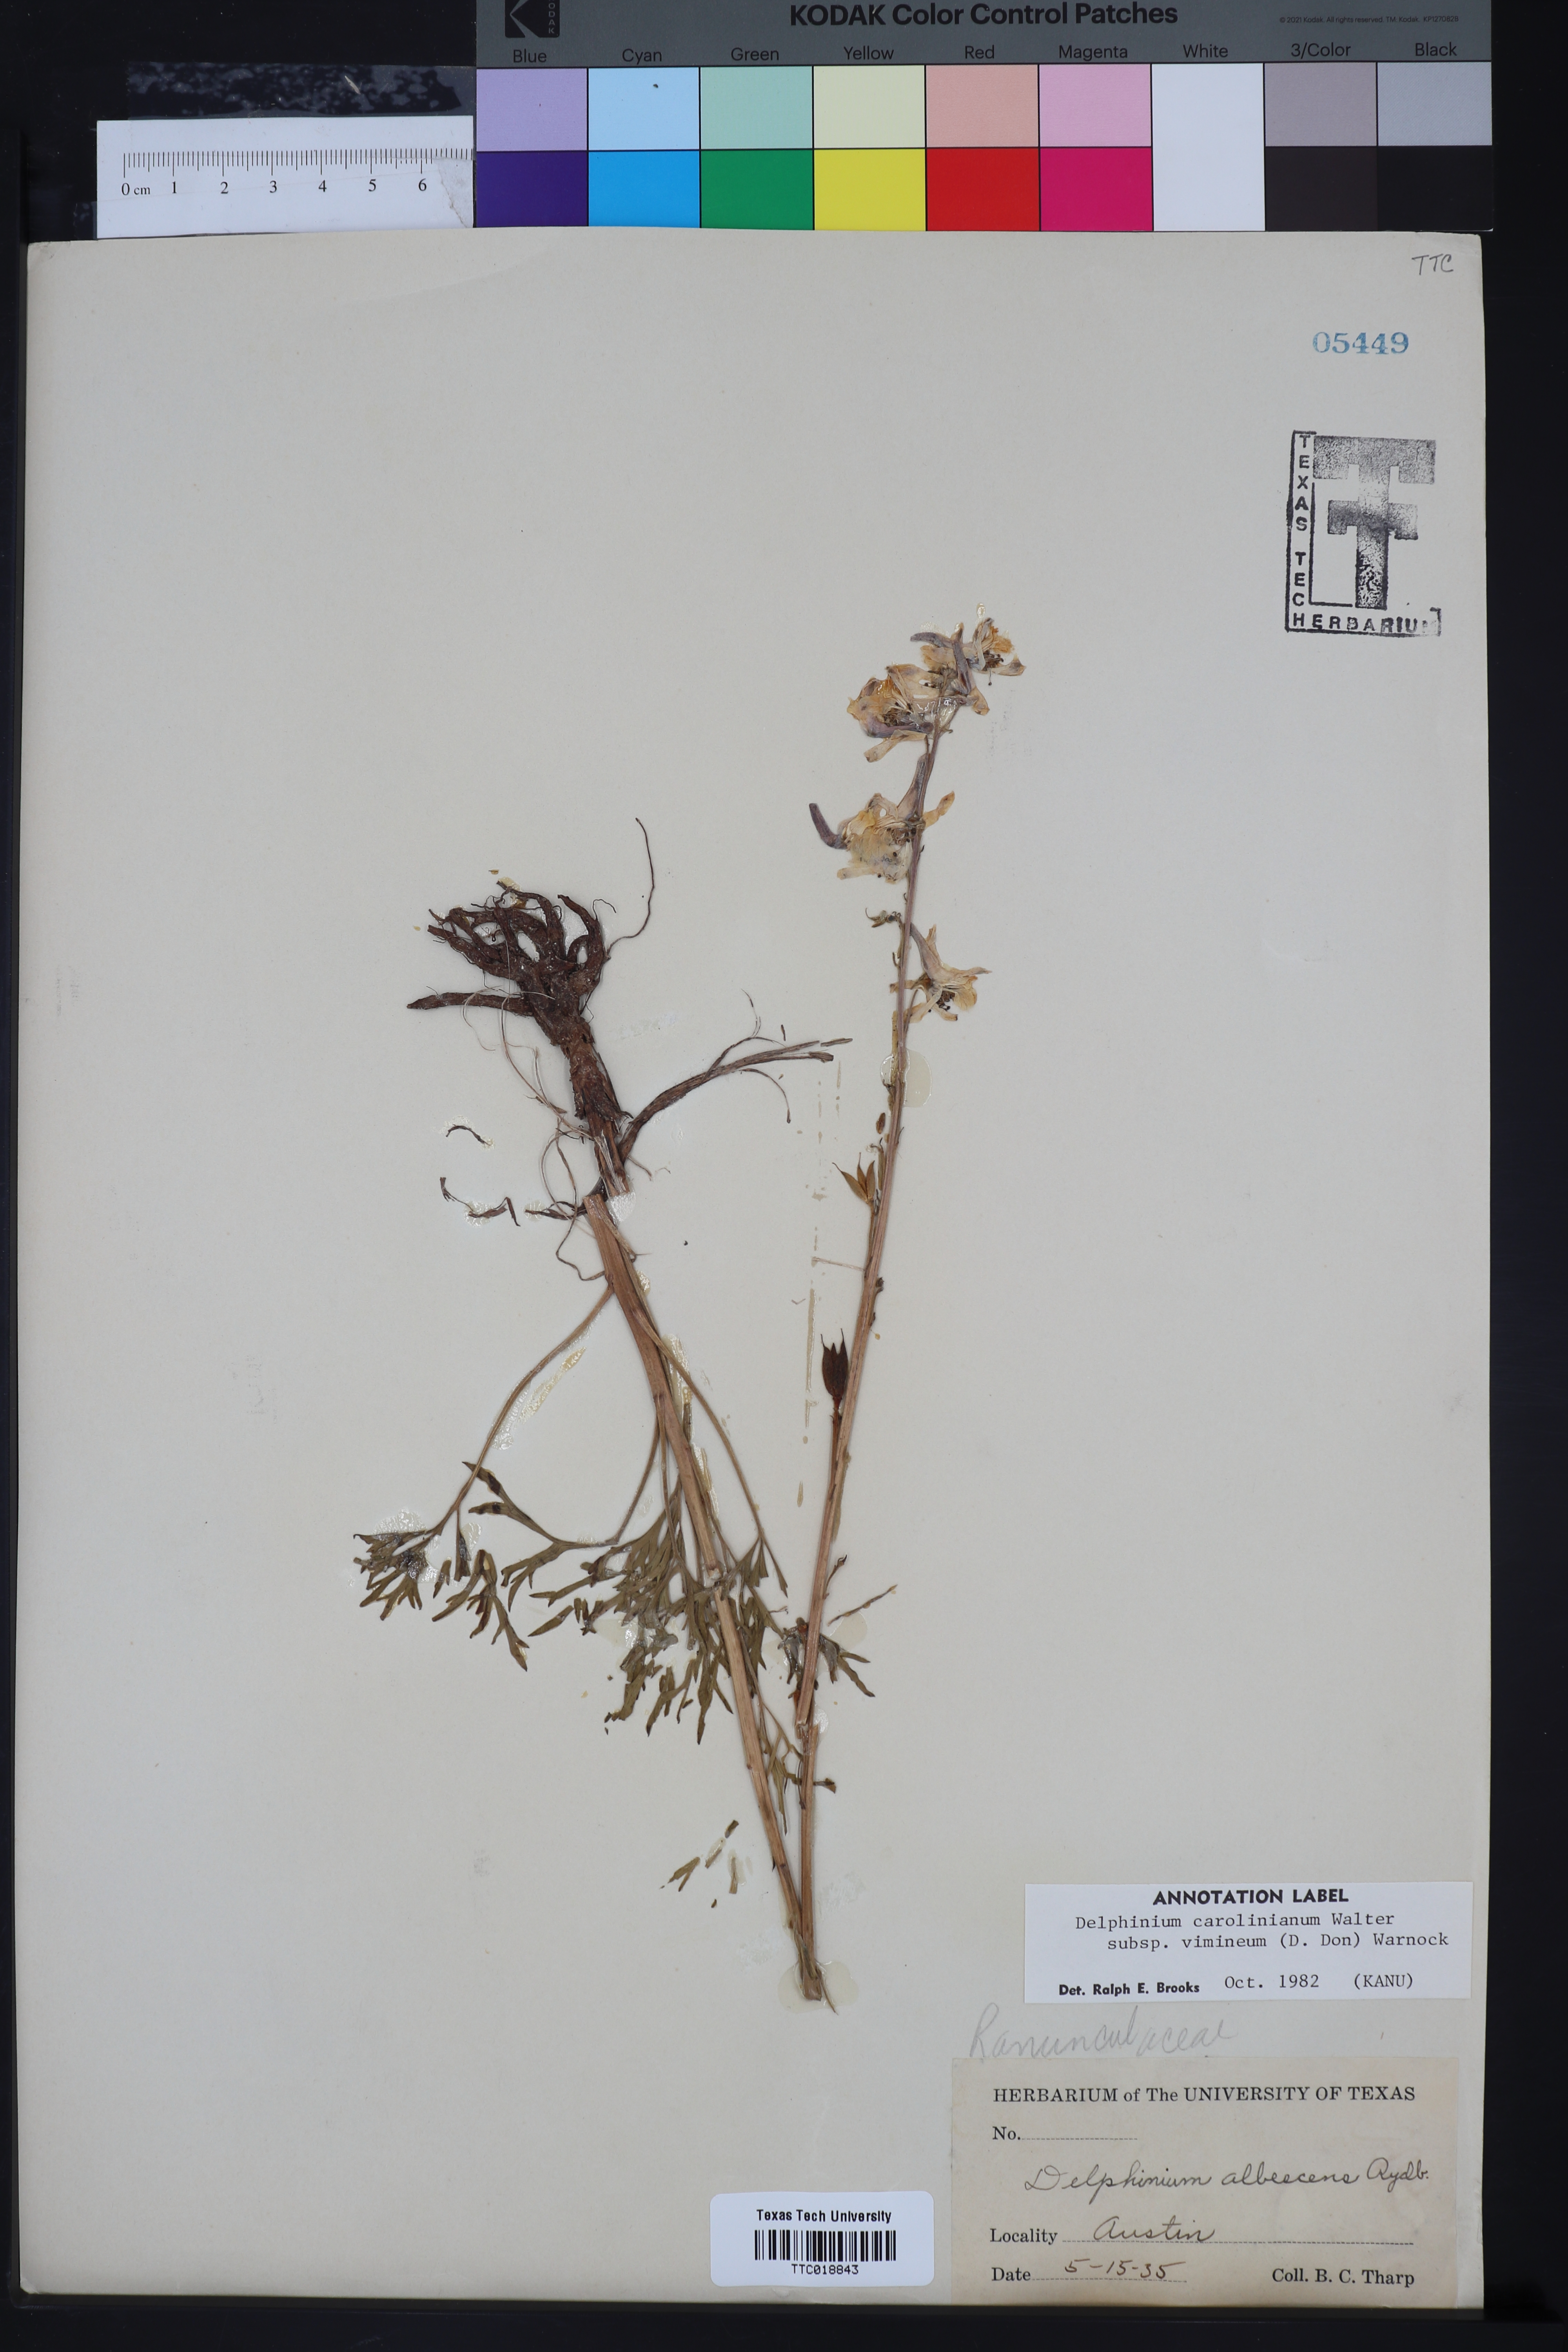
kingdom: Plantae
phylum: Tracheophyta
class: Magnoliopsida
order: Ranunculales
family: Ranunculaceae
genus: Delphinium
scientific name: Delphinium carolinianum
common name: Carolina larkspur
